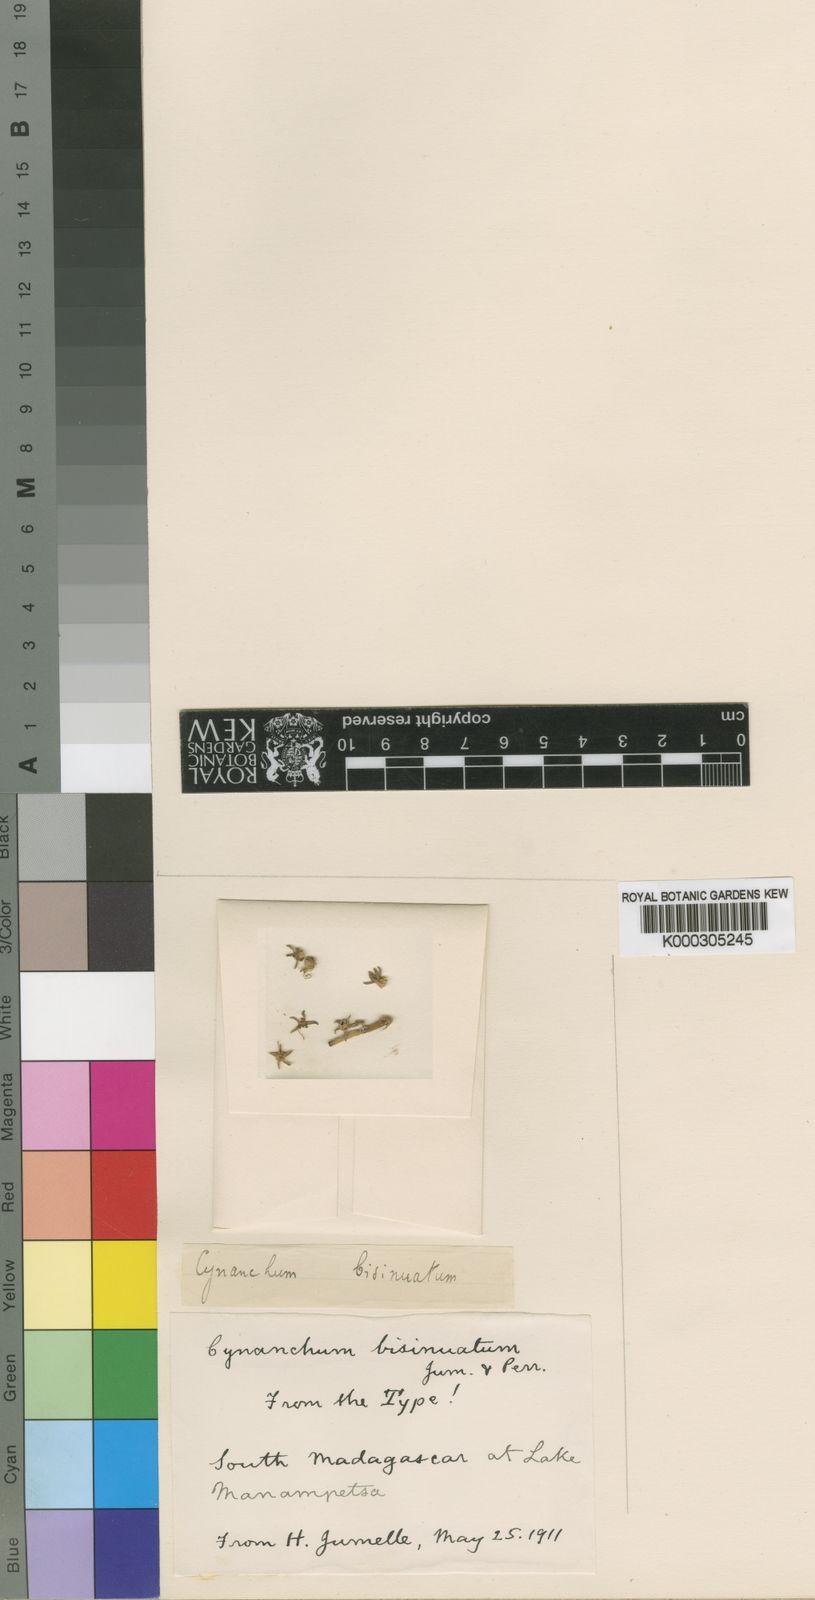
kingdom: Plantae
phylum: Tracheophyta
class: Magnoliopsida
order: Gentianales
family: Apocynaceae
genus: Cynanchum
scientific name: Cynanchum bisinuatum
